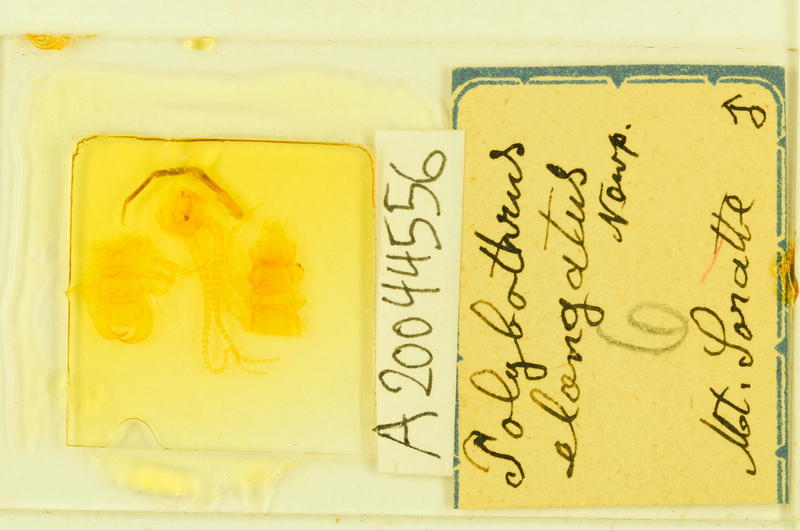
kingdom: Animalia
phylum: Arthropoda
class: Chilopoda
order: Lithobiomorpha
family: Lithobiidae
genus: Polybothrus
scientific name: Polybothrus
